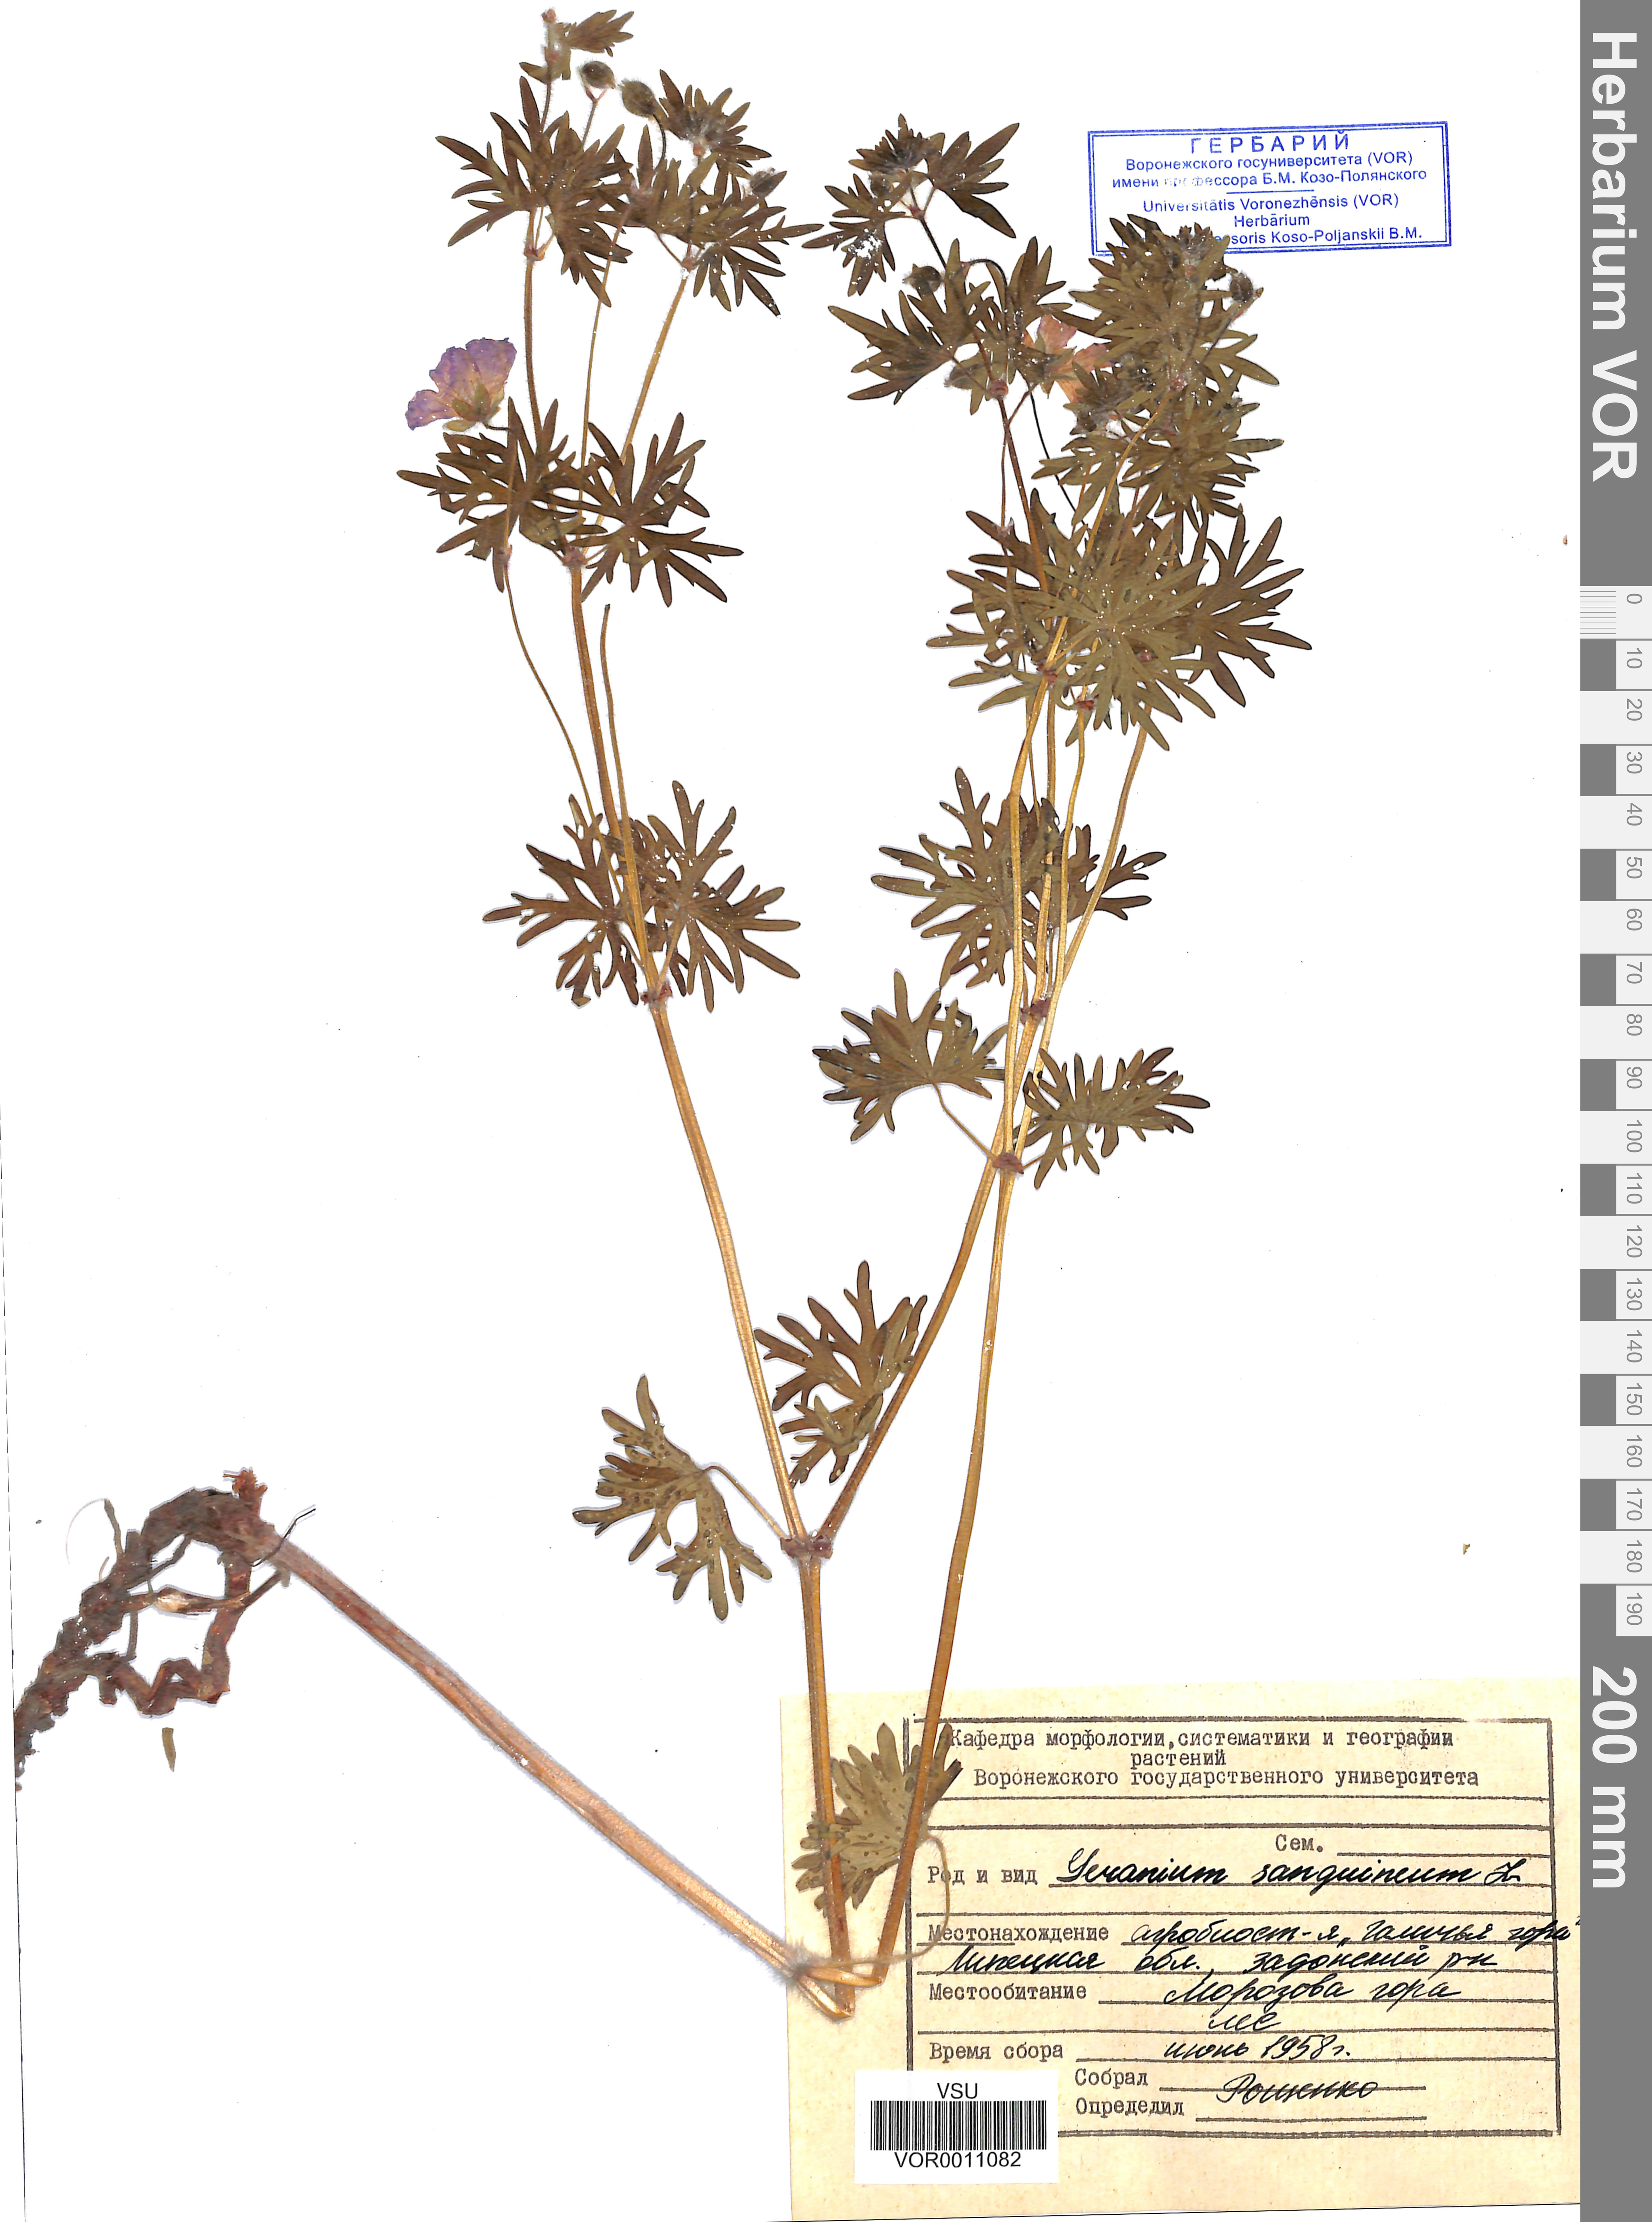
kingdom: Plantae
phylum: Tracheophyta
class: Magnoliopsida
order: Geraniales
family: Geraniaceae
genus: Geranium
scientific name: Geranium sanguineum
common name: Bloody crane's-bill
